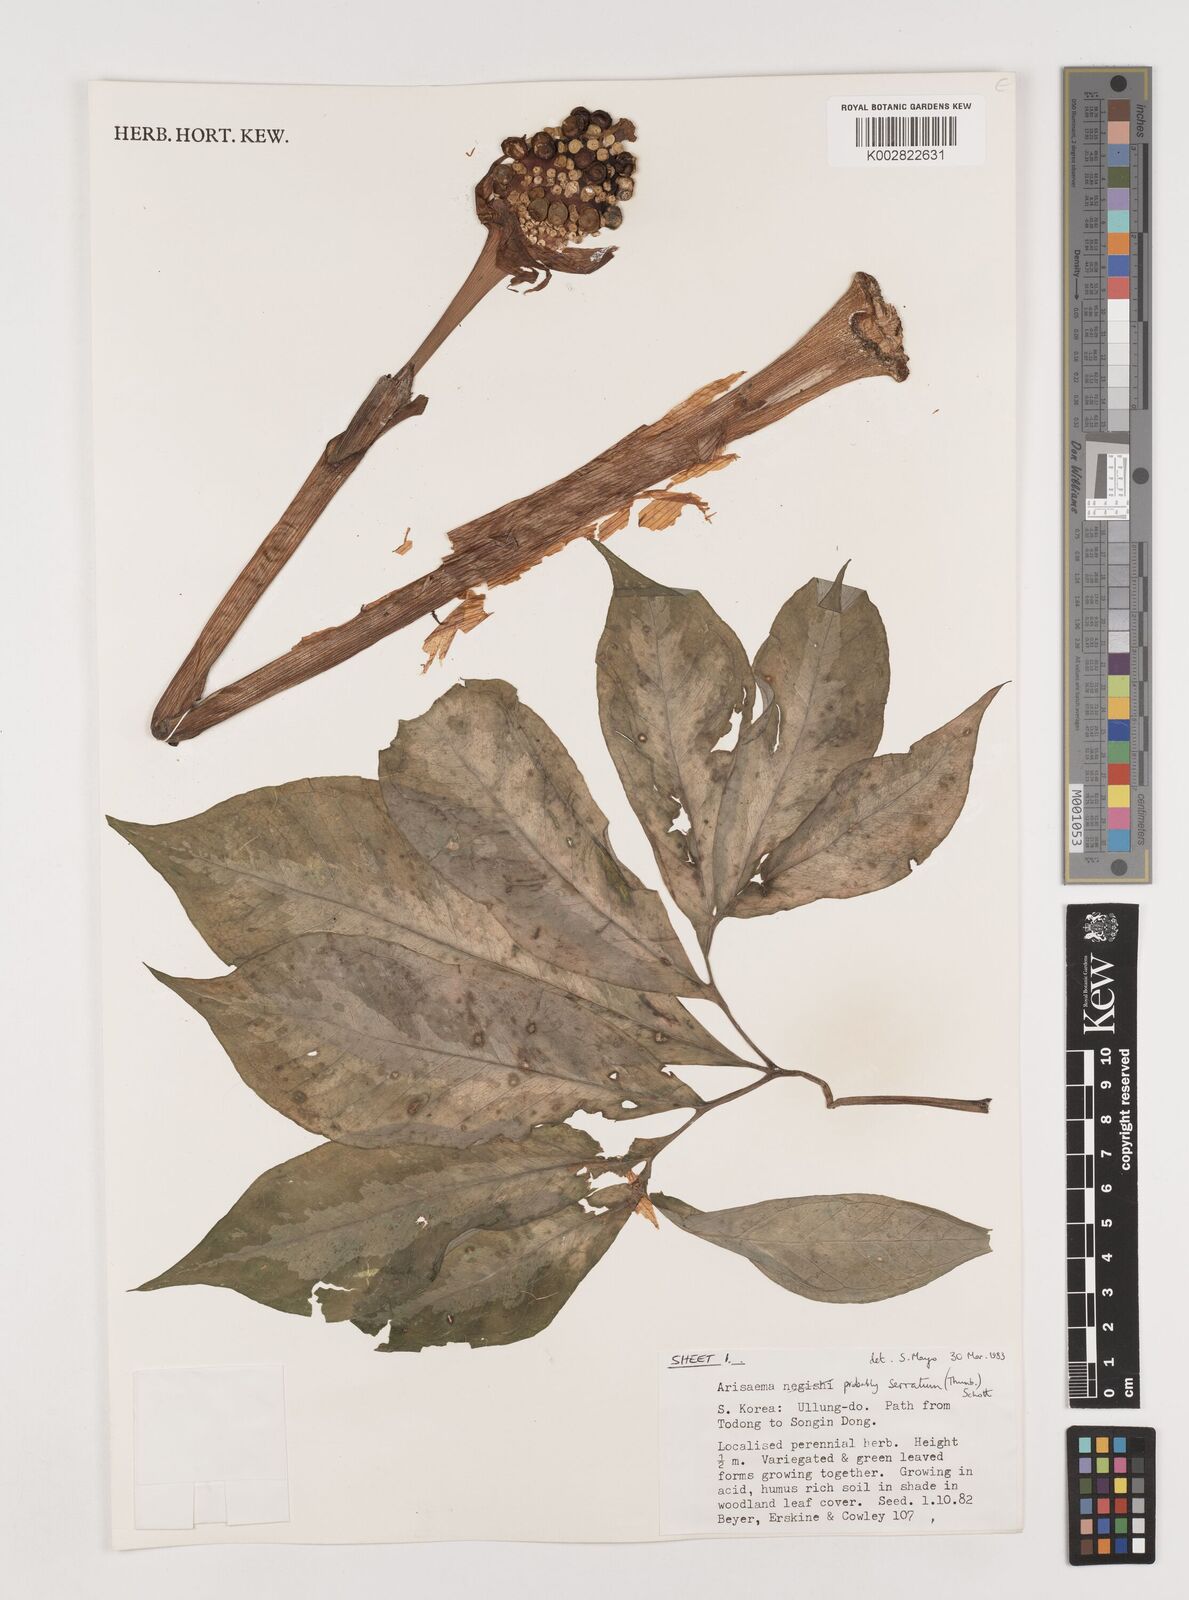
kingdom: Plantae
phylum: Tracheophyta
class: Liliopsida
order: Alismatales
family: Araceae
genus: Arisaema
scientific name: Arisaema serratum
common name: Japanese arisaema
